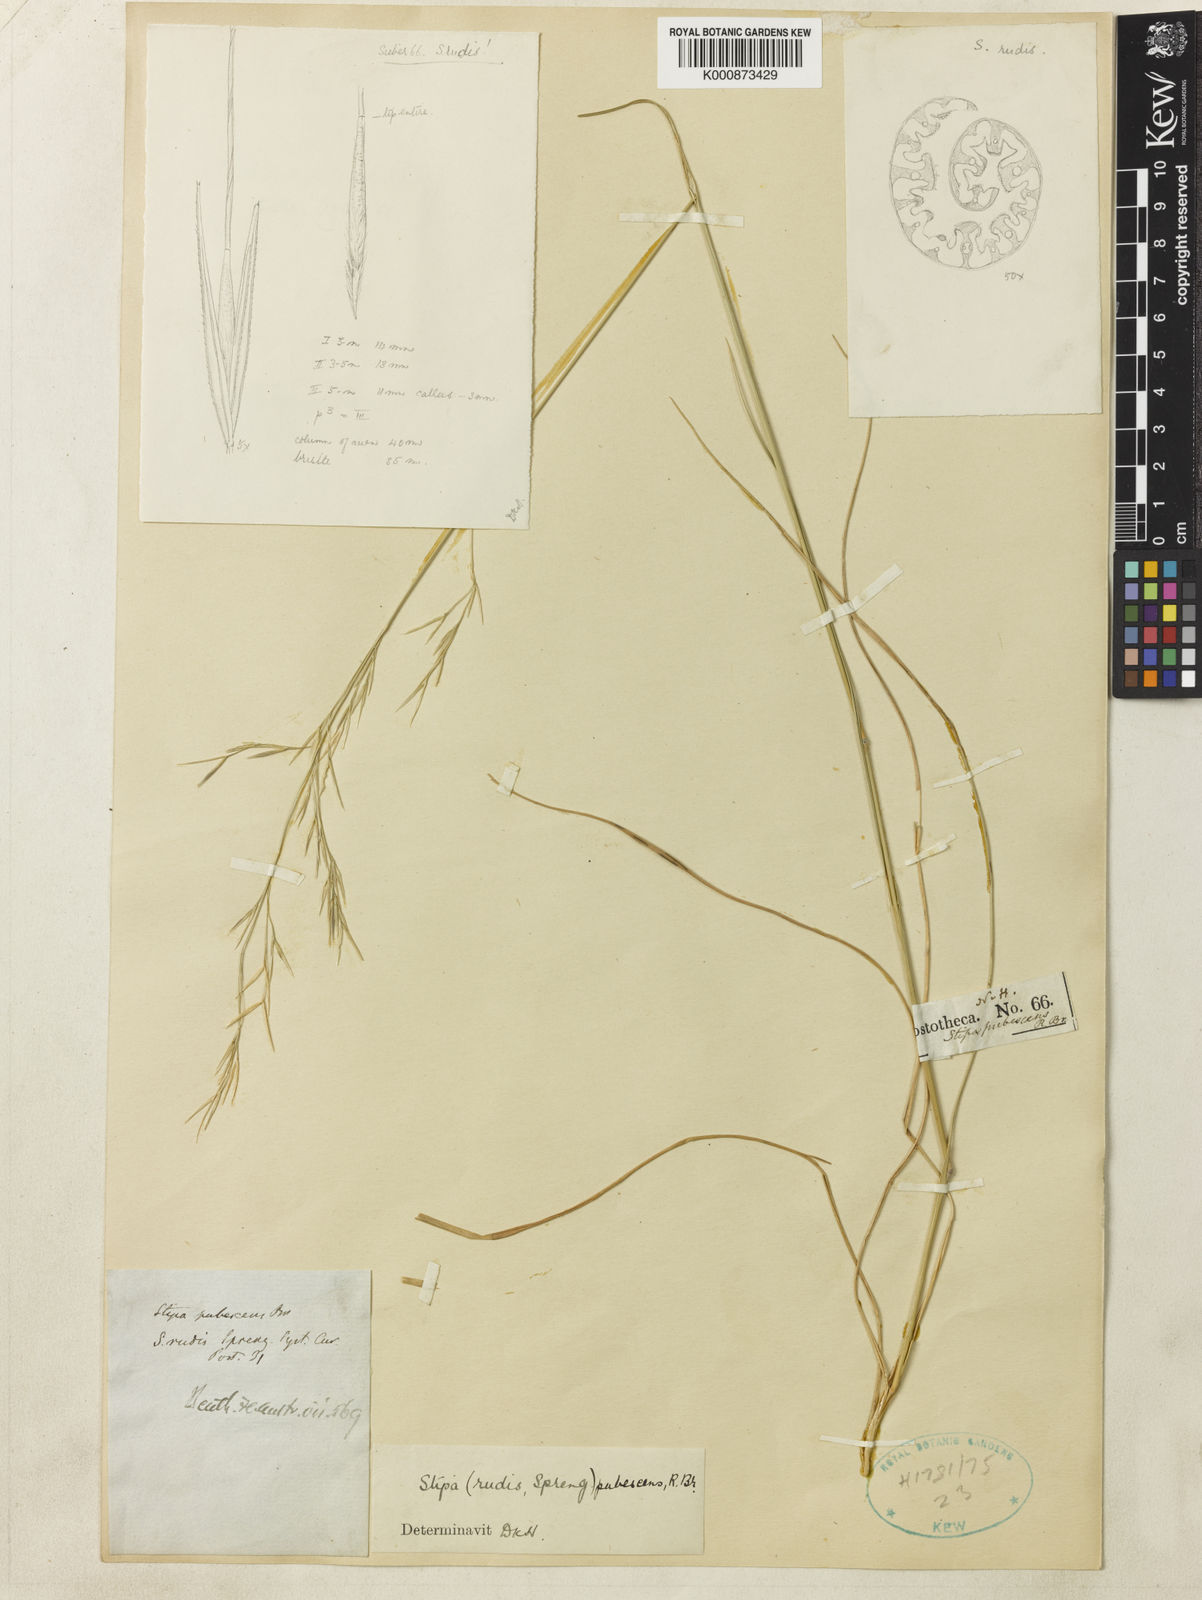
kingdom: Plantae
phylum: Tracheophyta
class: Liliopsida
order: Poales
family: Poaceae
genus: Austrostipa
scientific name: Austrostipa rudis
